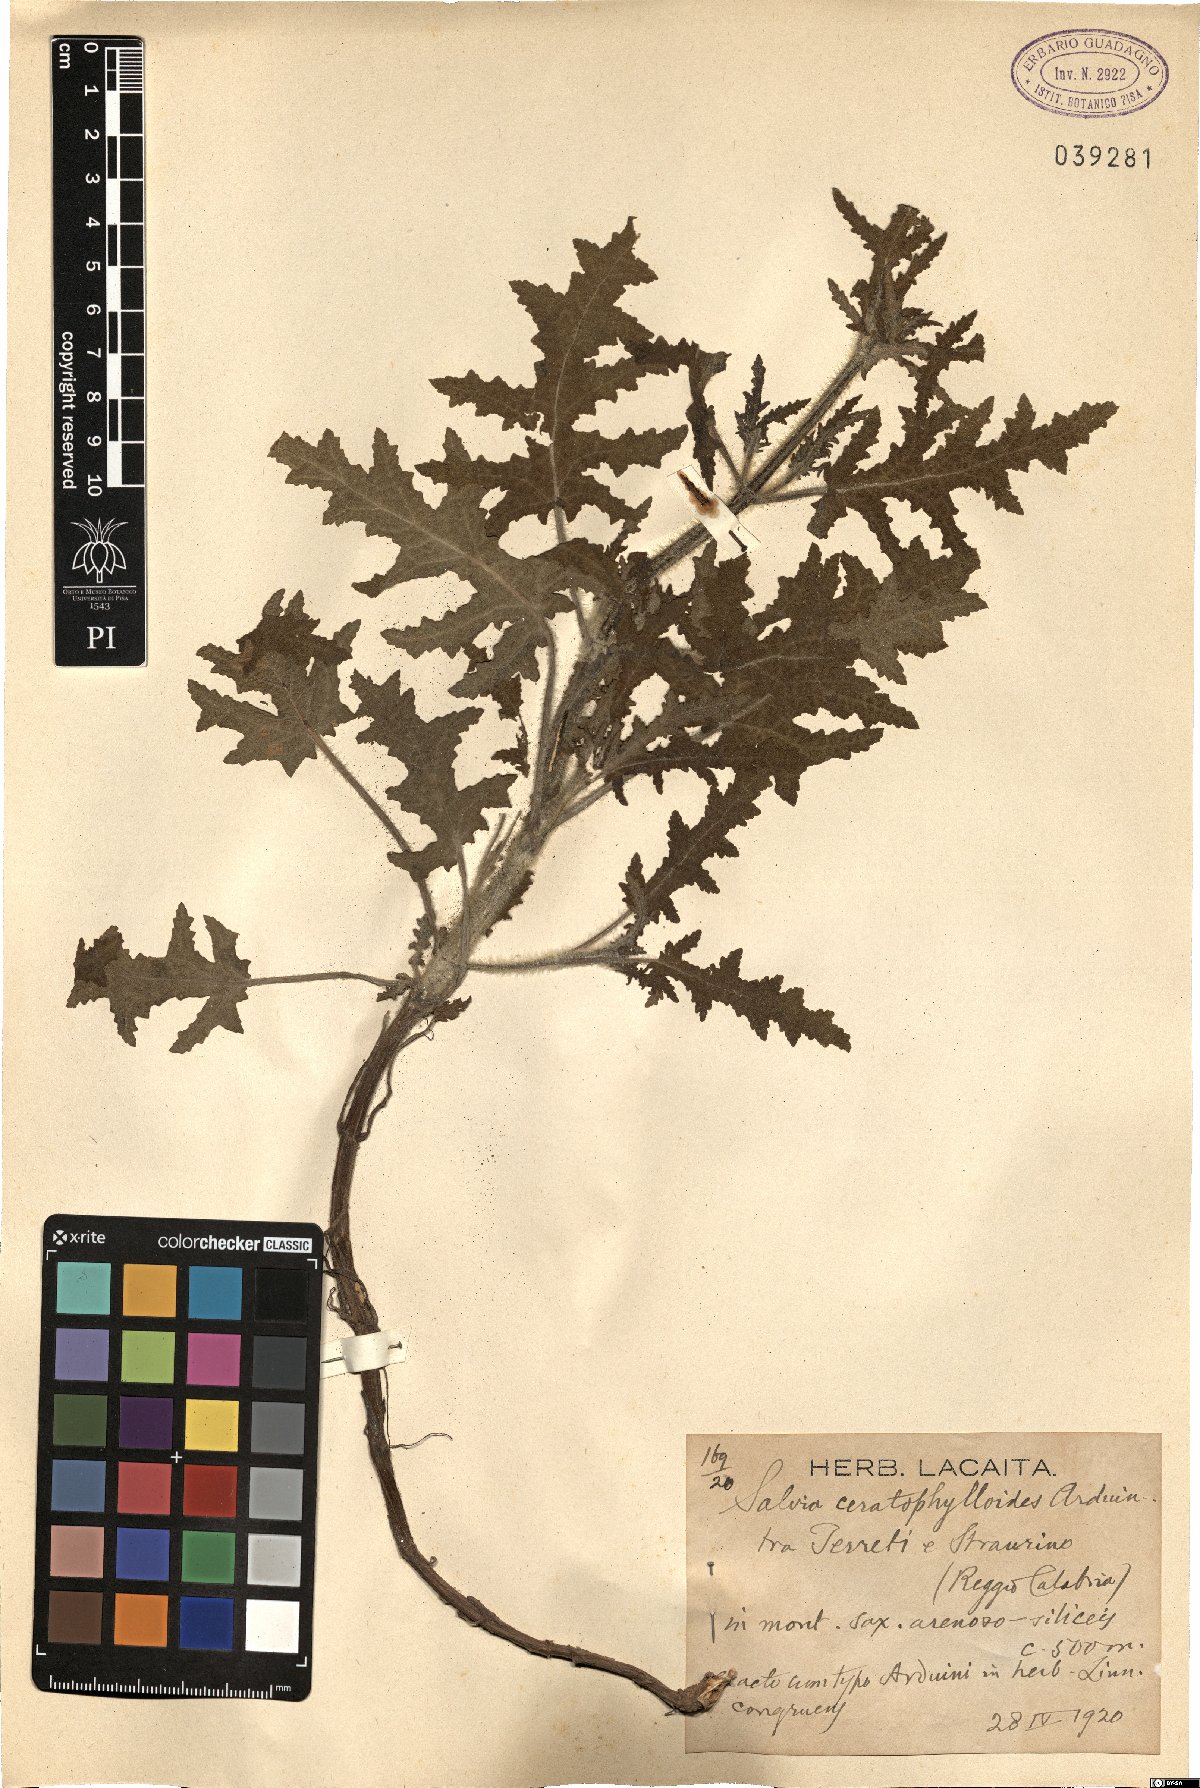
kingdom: Plantae
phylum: Tracheophyta
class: Magnoliopsida
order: Lamiales
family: Lamiaceae
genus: Salvia
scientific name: Salvia pratensis
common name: Meadow sage
